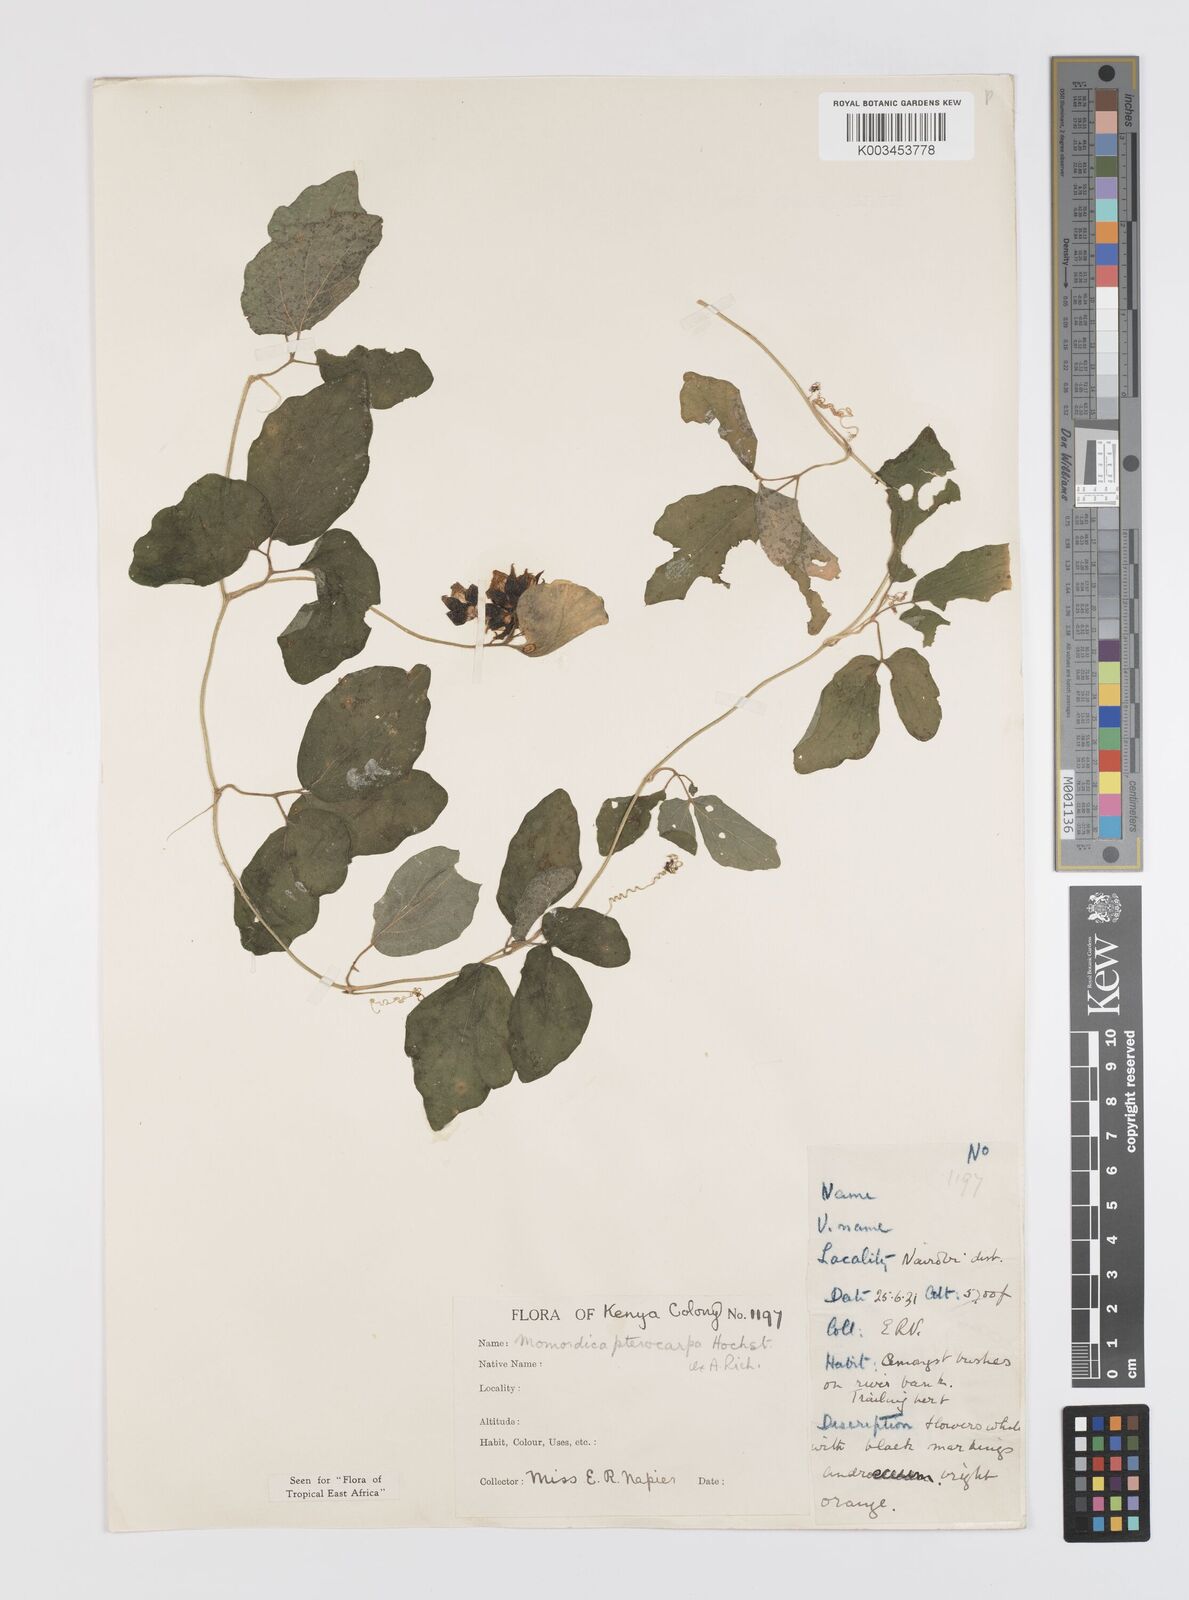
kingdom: Plantae
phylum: Tracheophyta
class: Magnoliopsida
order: Cucurbitales
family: Cucurbitaceae
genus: Momordica
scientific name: Momordica pterocarpa
